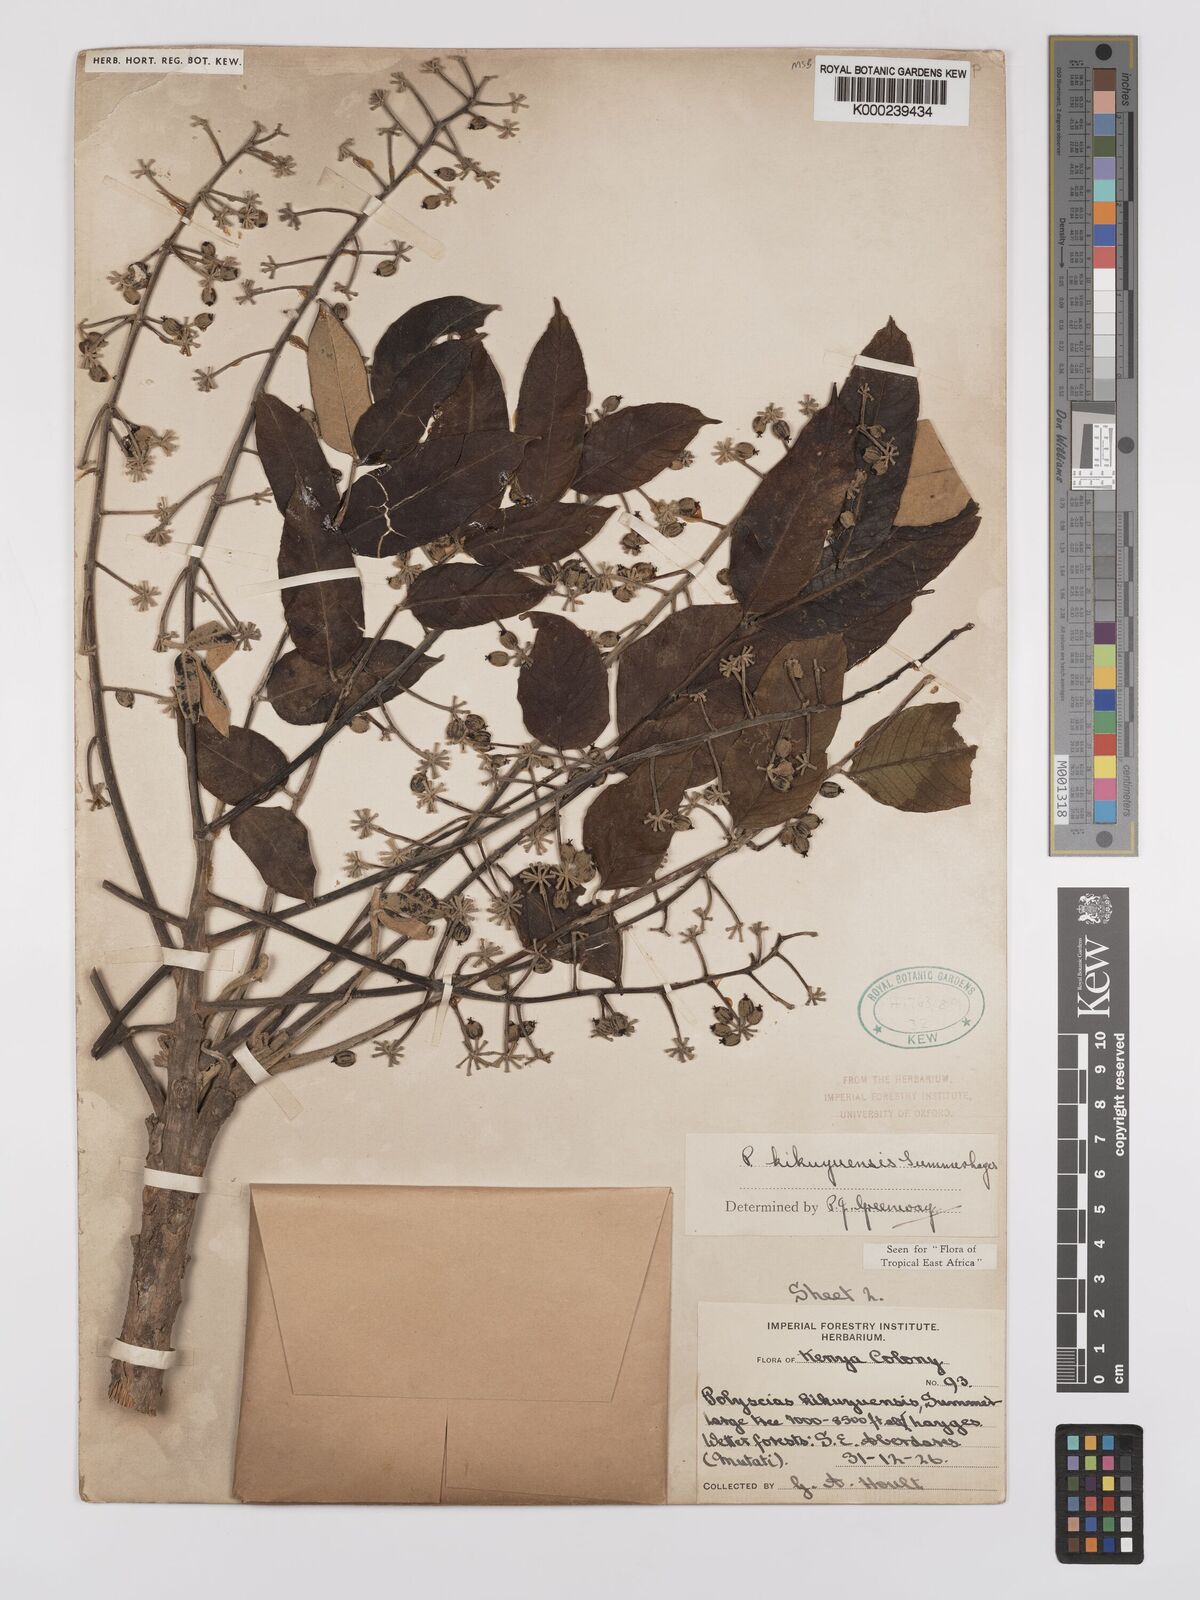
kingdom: Plantae
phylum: Tracheophyta
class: Magnoliopsida
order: Apiales
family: Araliaceae
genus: Polyscias
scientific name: Polyscias kikuyuensis
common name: Parasol tree
